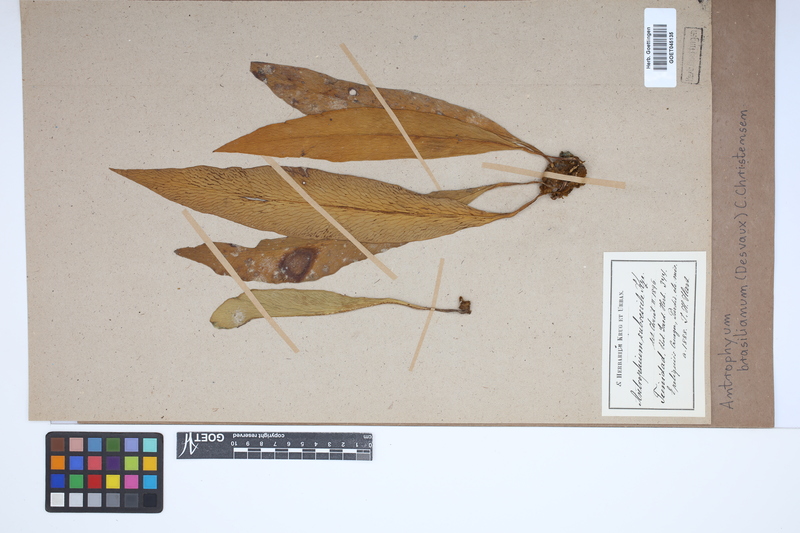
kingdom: Plantae
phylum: Tracheophyta
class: Polypodiopsida
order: Polypodiales
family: Pteridaceae
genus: Polytaenium
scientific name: Polytaenium cajenense
